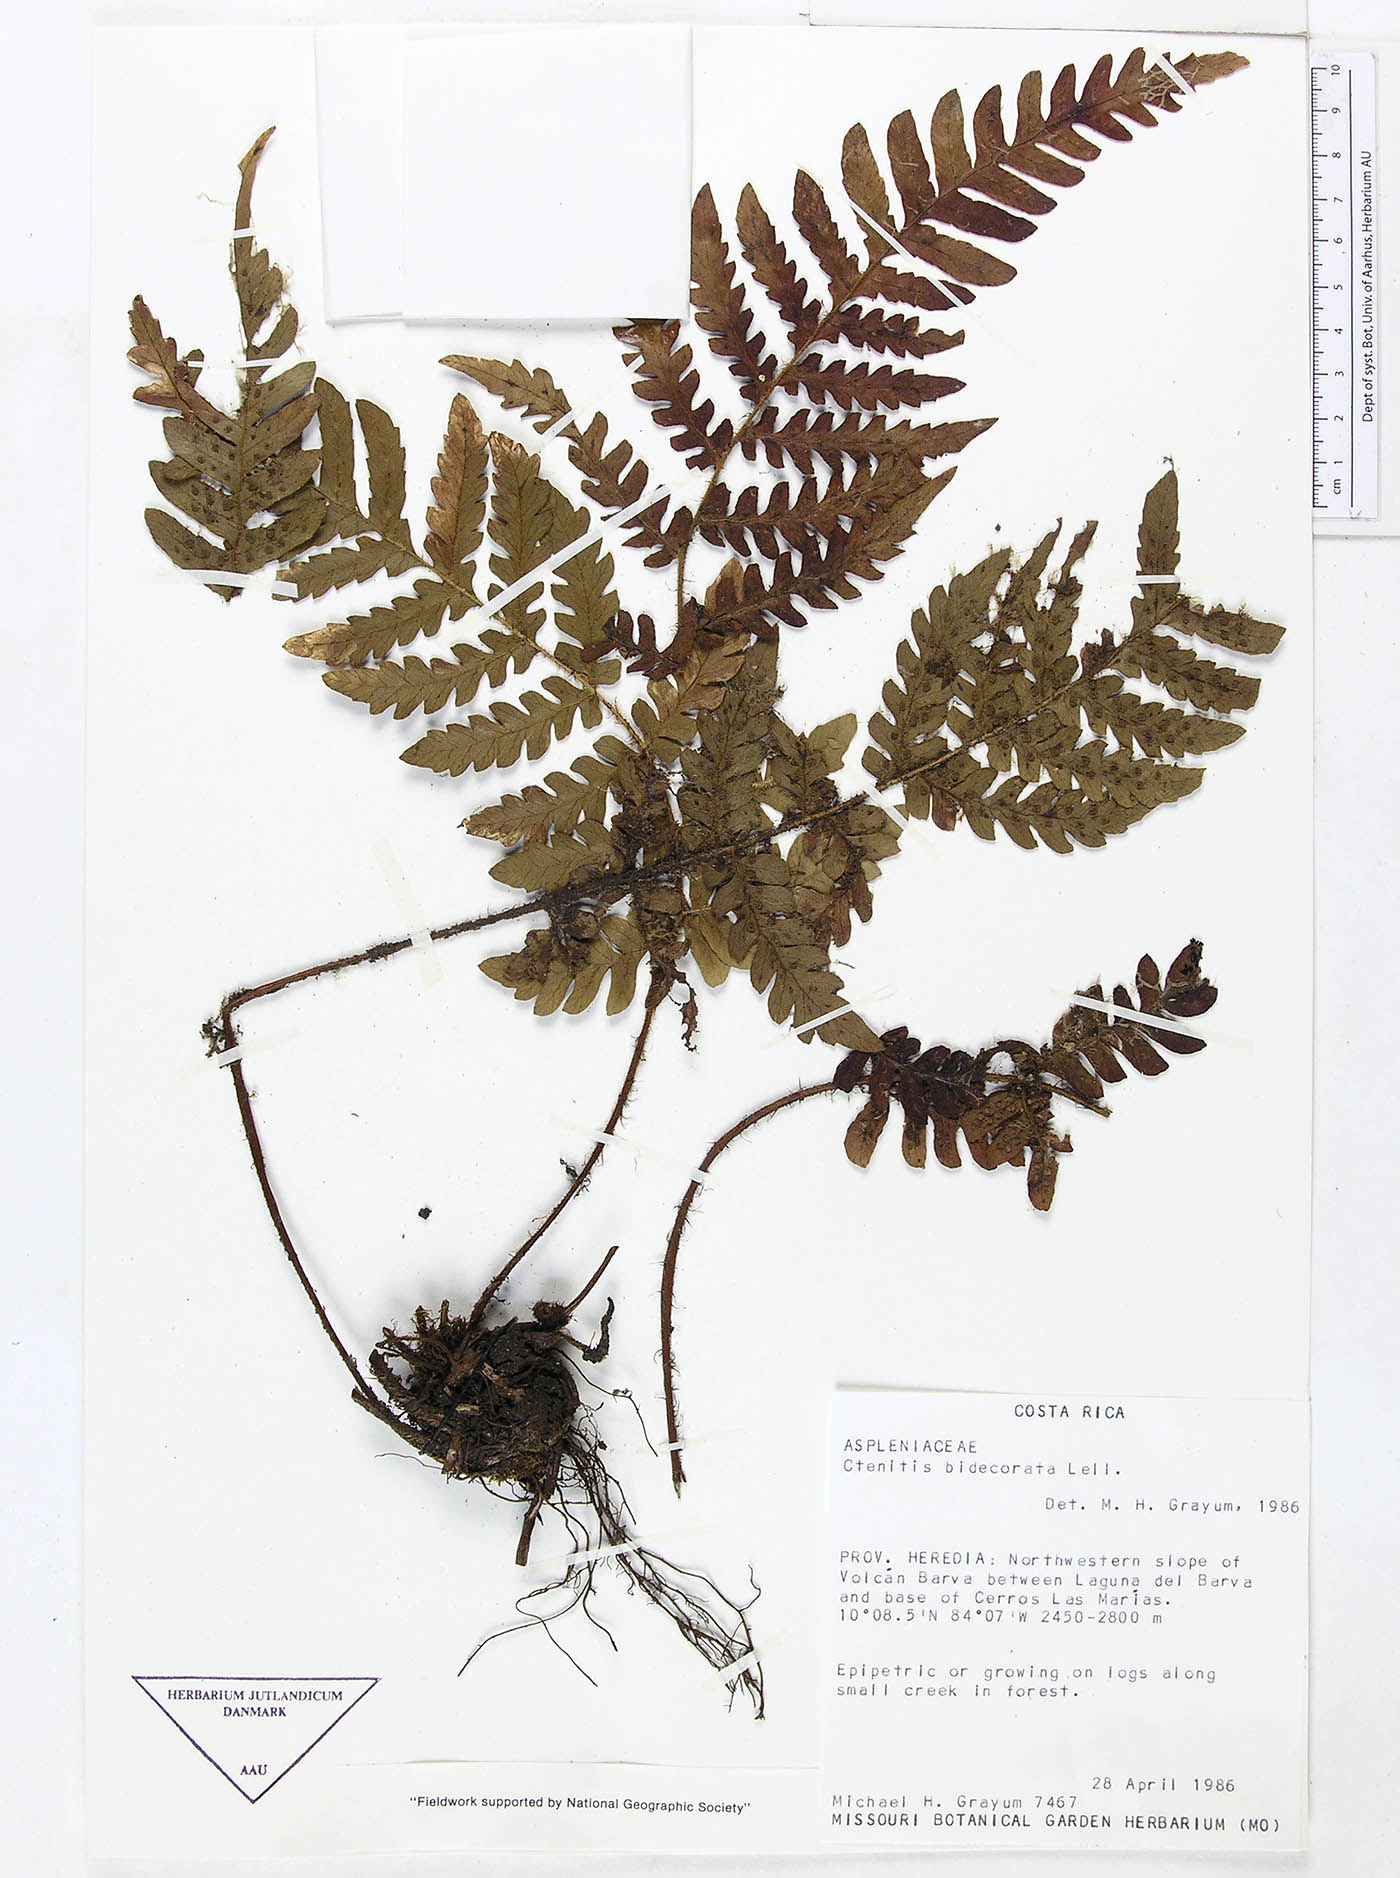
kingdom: Plantae
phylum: Tracheophyta
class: Polypodiopsida
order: Polypodiales
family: Dryopteridaceae
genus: Megalastrum
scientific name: Megalastrum biseriale
